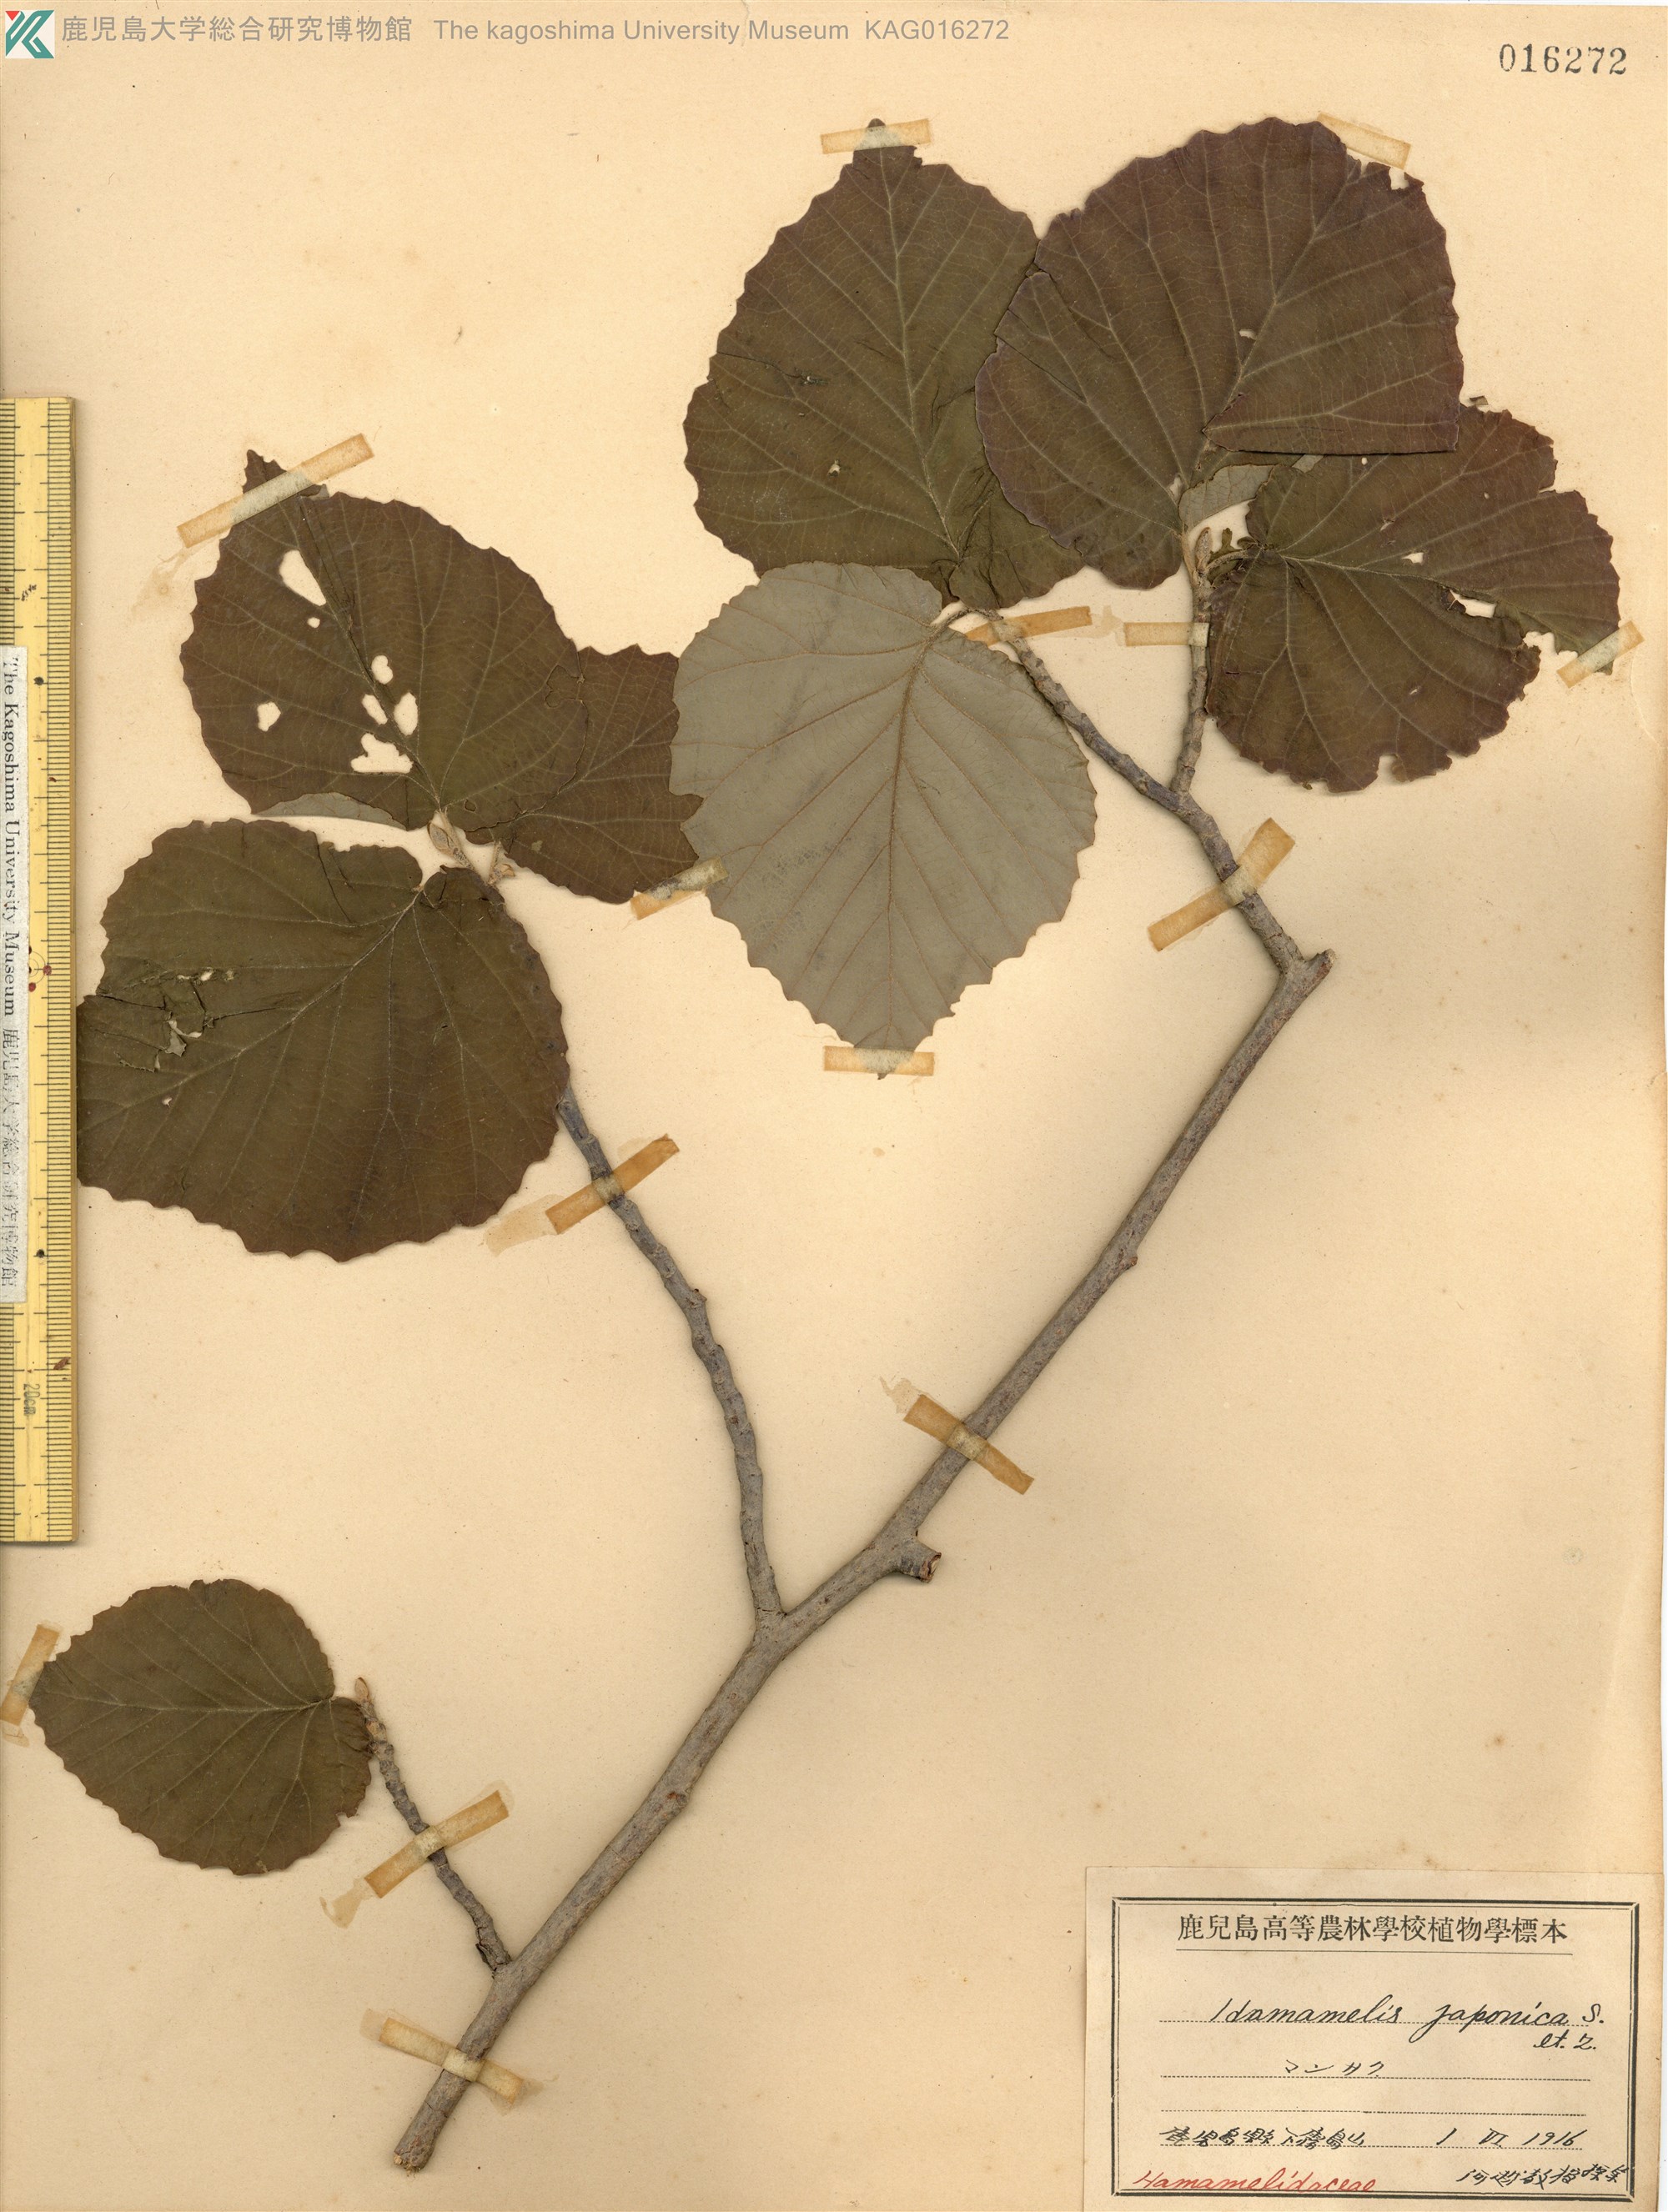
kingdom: Plantae
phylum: Tracheophyta
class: Magnoliopsida
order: Saxifragales
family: Hamamelidaceae
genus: Hamamelis
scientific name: Hamamelis japonica
